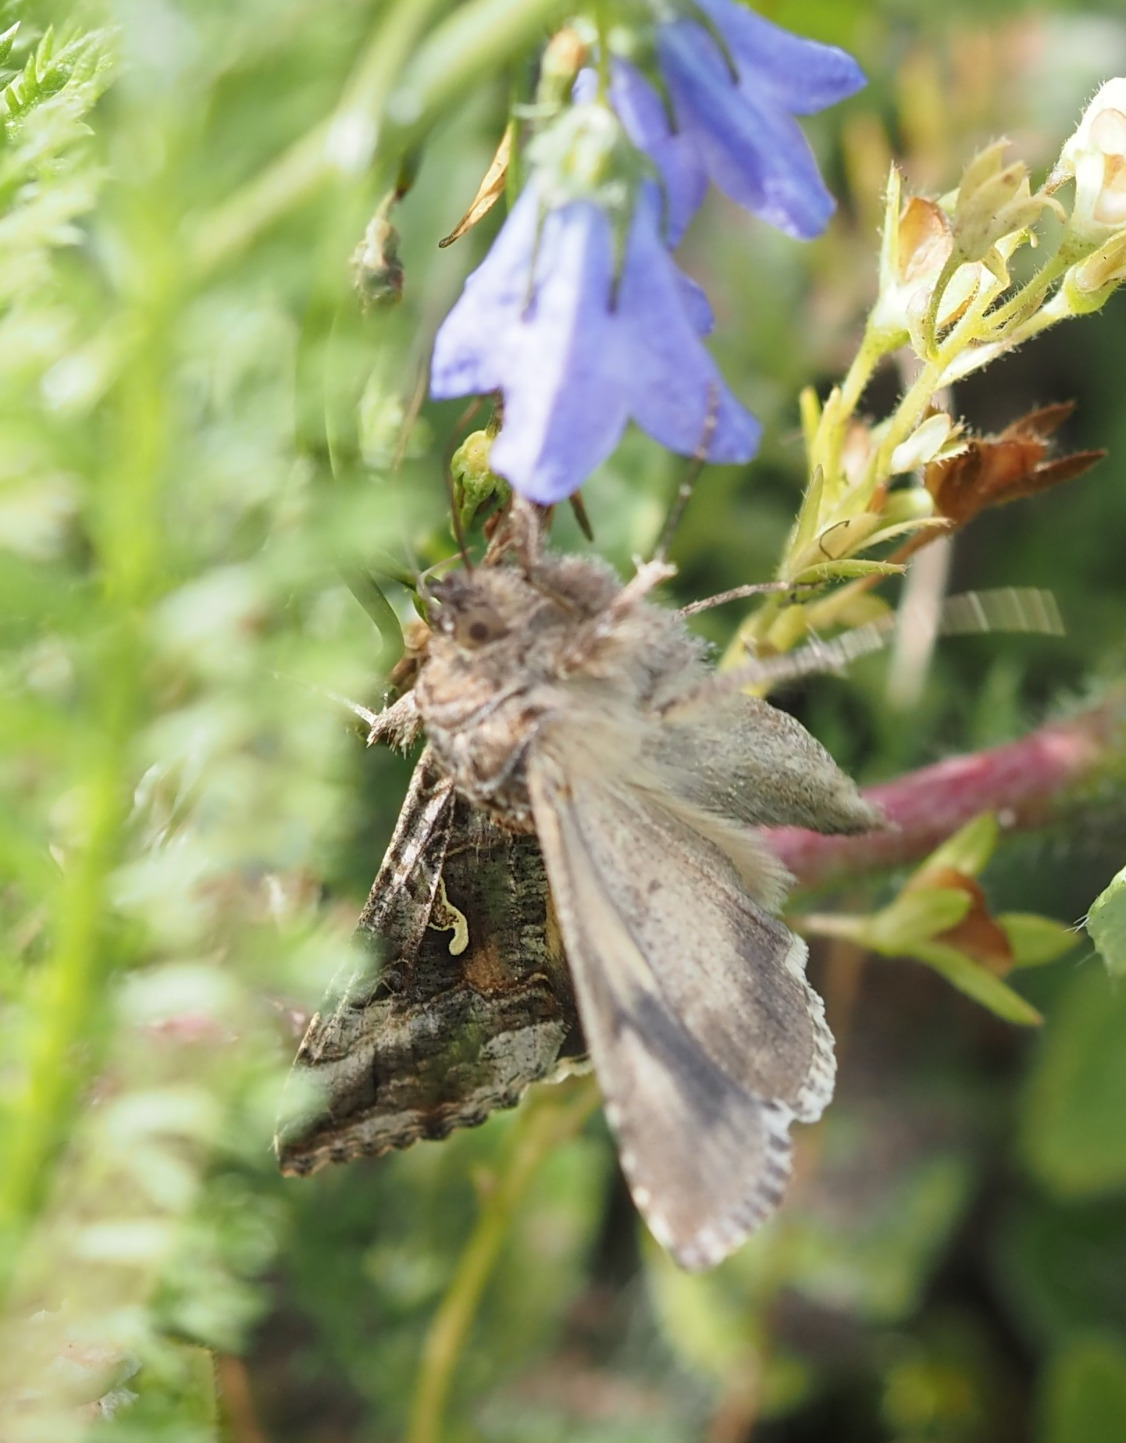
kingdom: Animalia
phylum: Arthropoda
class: Insecta
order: Lepidoptera
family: Noctuidae
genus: Autographa
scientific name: Autographa gamma
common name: Gammaugle
